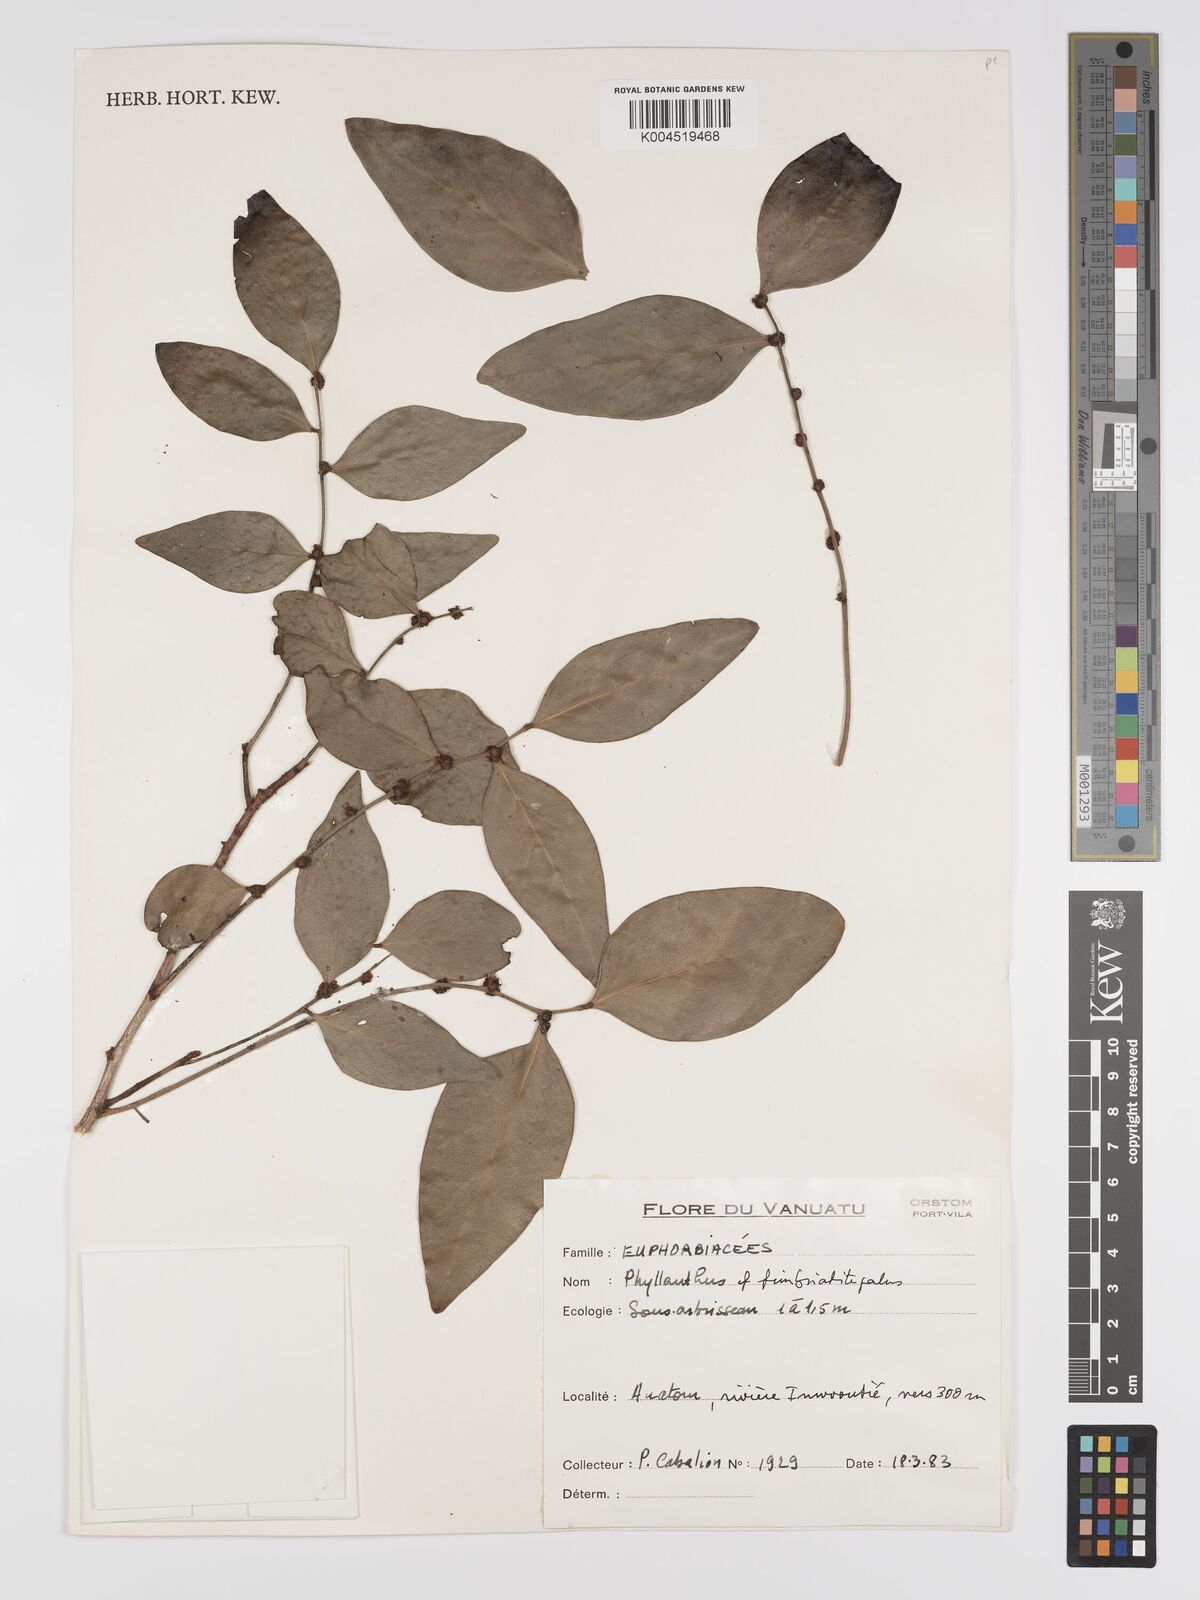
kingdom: Plantae
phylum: Tracheophyta
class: Magnoliopsida
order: Malpighiales
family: Phyllanthaceae
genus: Phyllanthus
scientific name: Phyllanthus fimbriatitepalus
